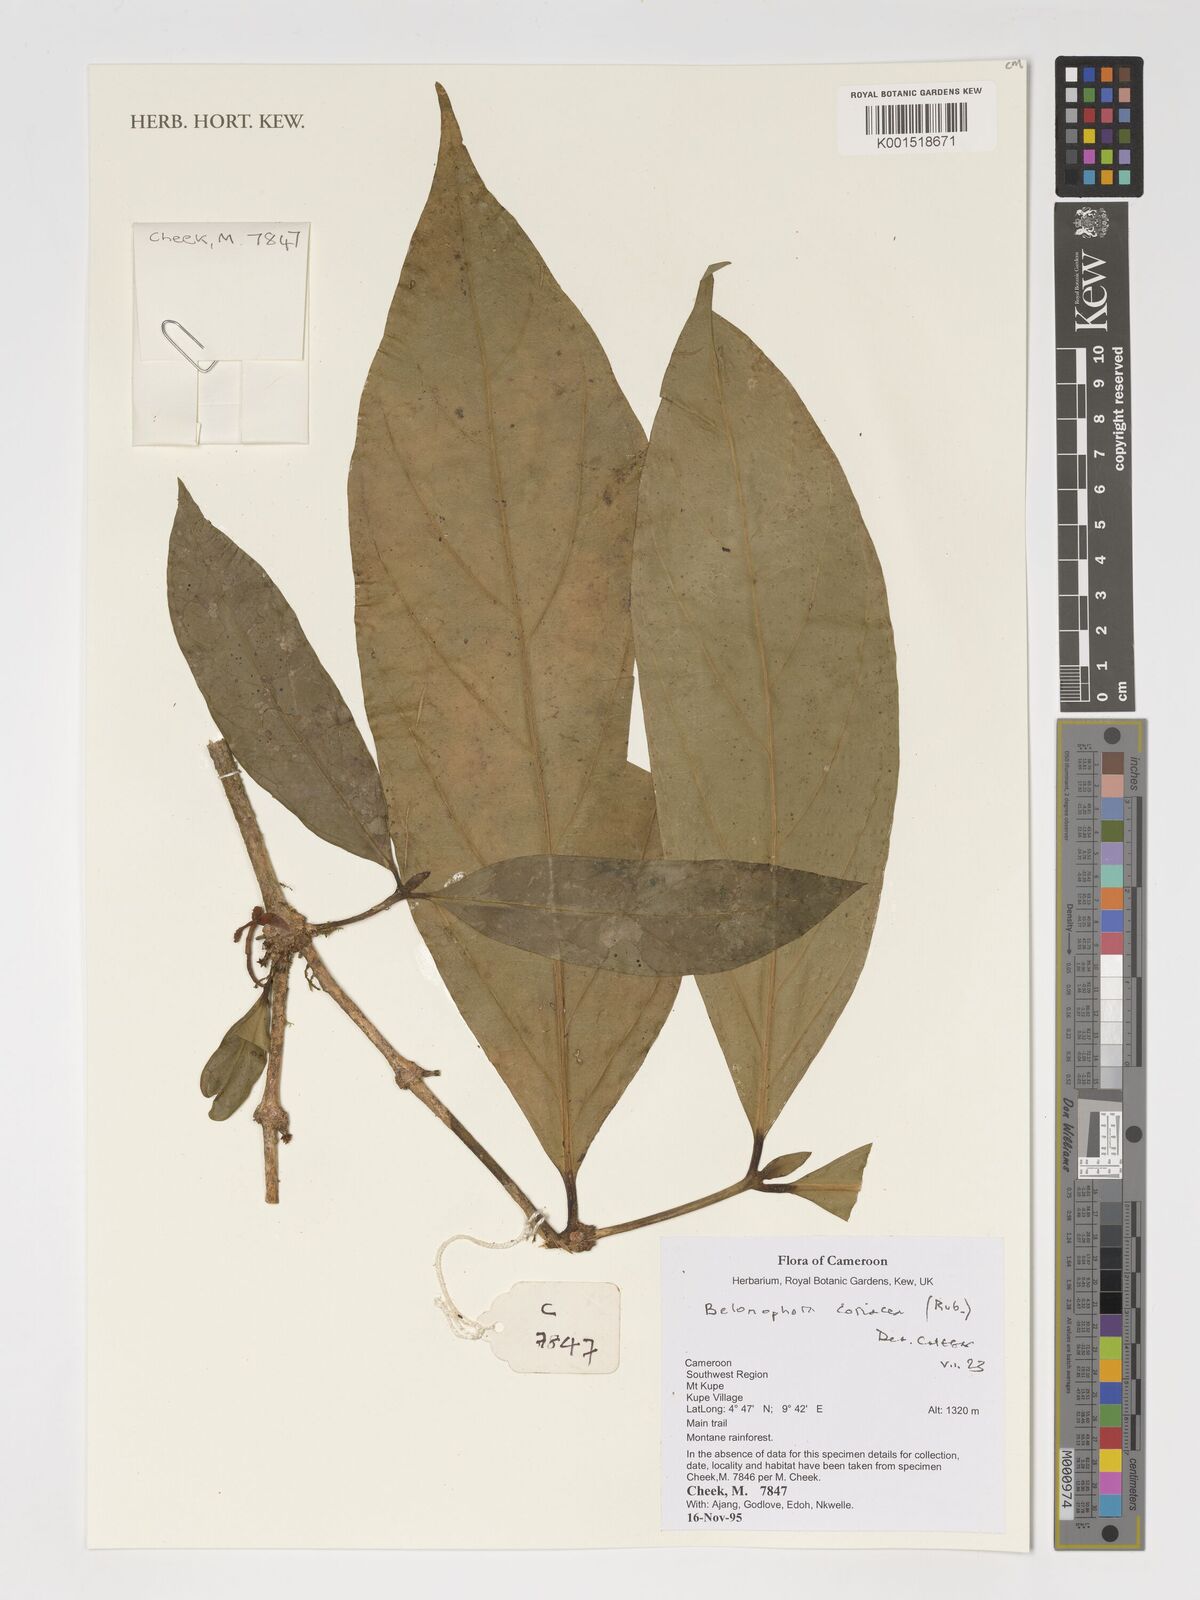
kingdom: Plantae
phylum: Tracheophyta
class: Magnoliopsida
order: Gentianales
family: Rubiaceae
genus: Belonophora
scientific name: Belonophora coriacea
